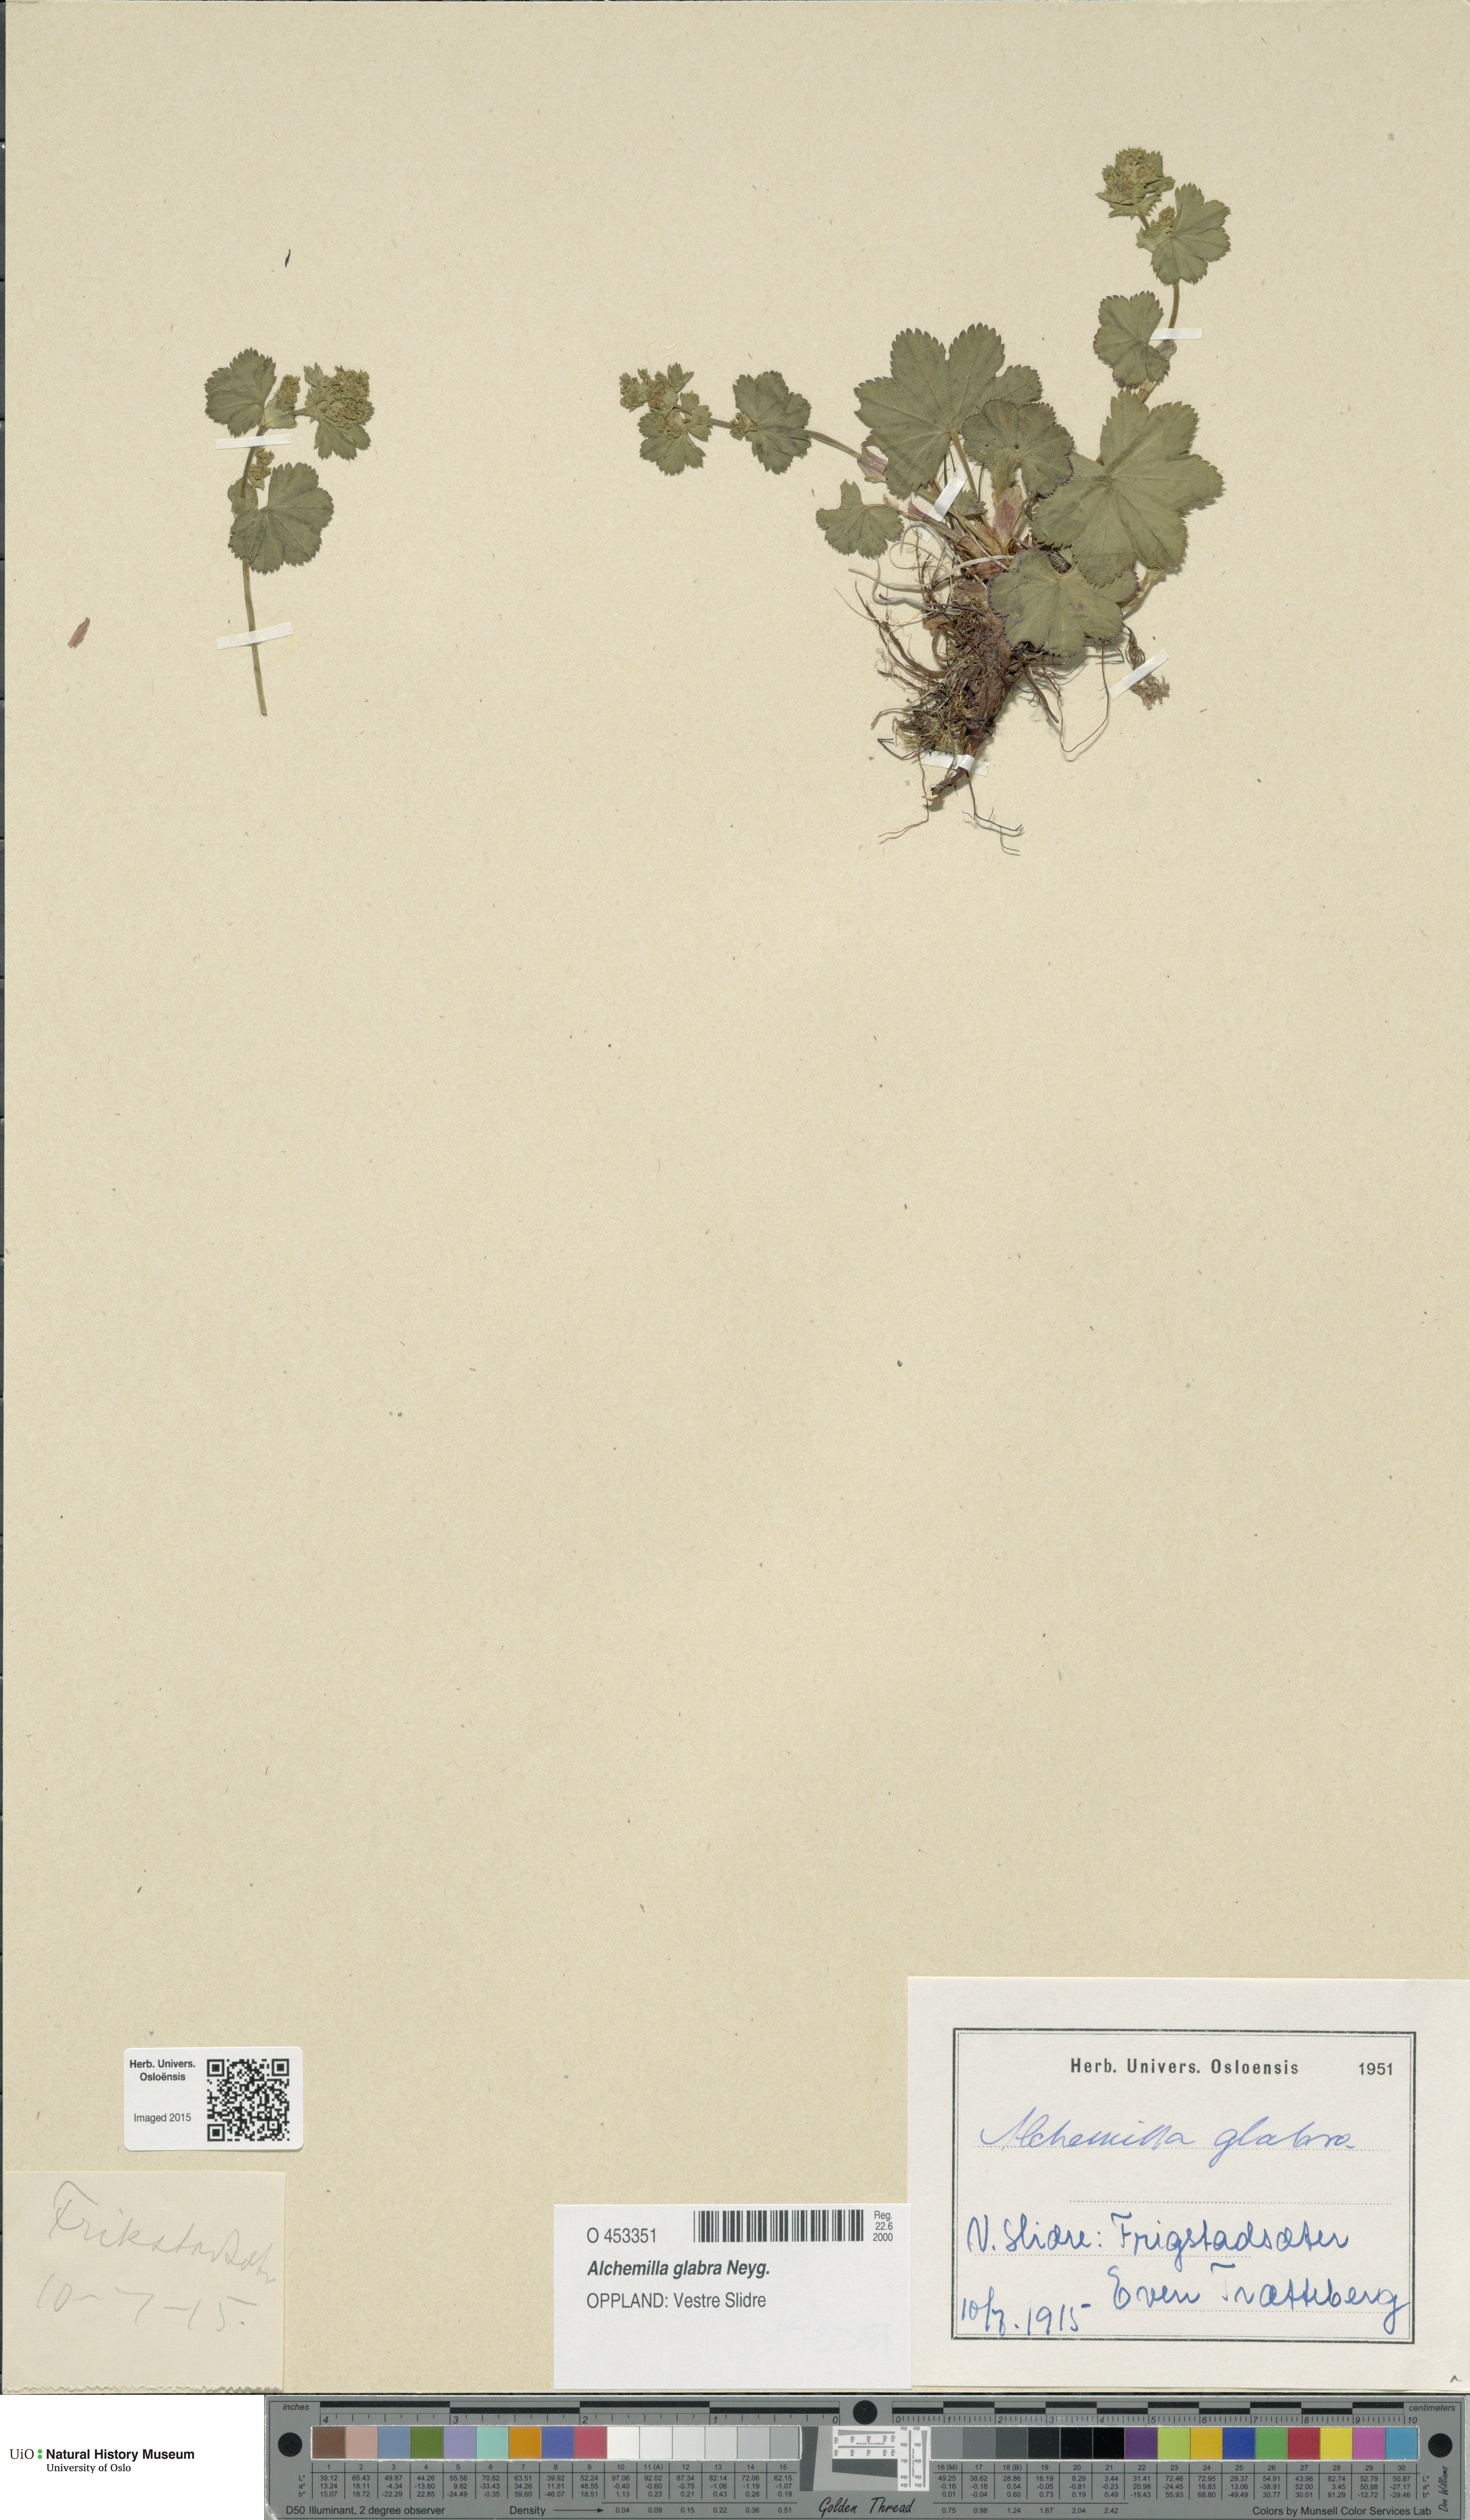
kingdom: Plantae
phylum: Tracheophyta
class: Magnoliopsida
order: Rosales
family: Rosaceae
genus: Alchemilla
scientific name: Alchemilla glabra
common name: Smooth lady's-mantle
